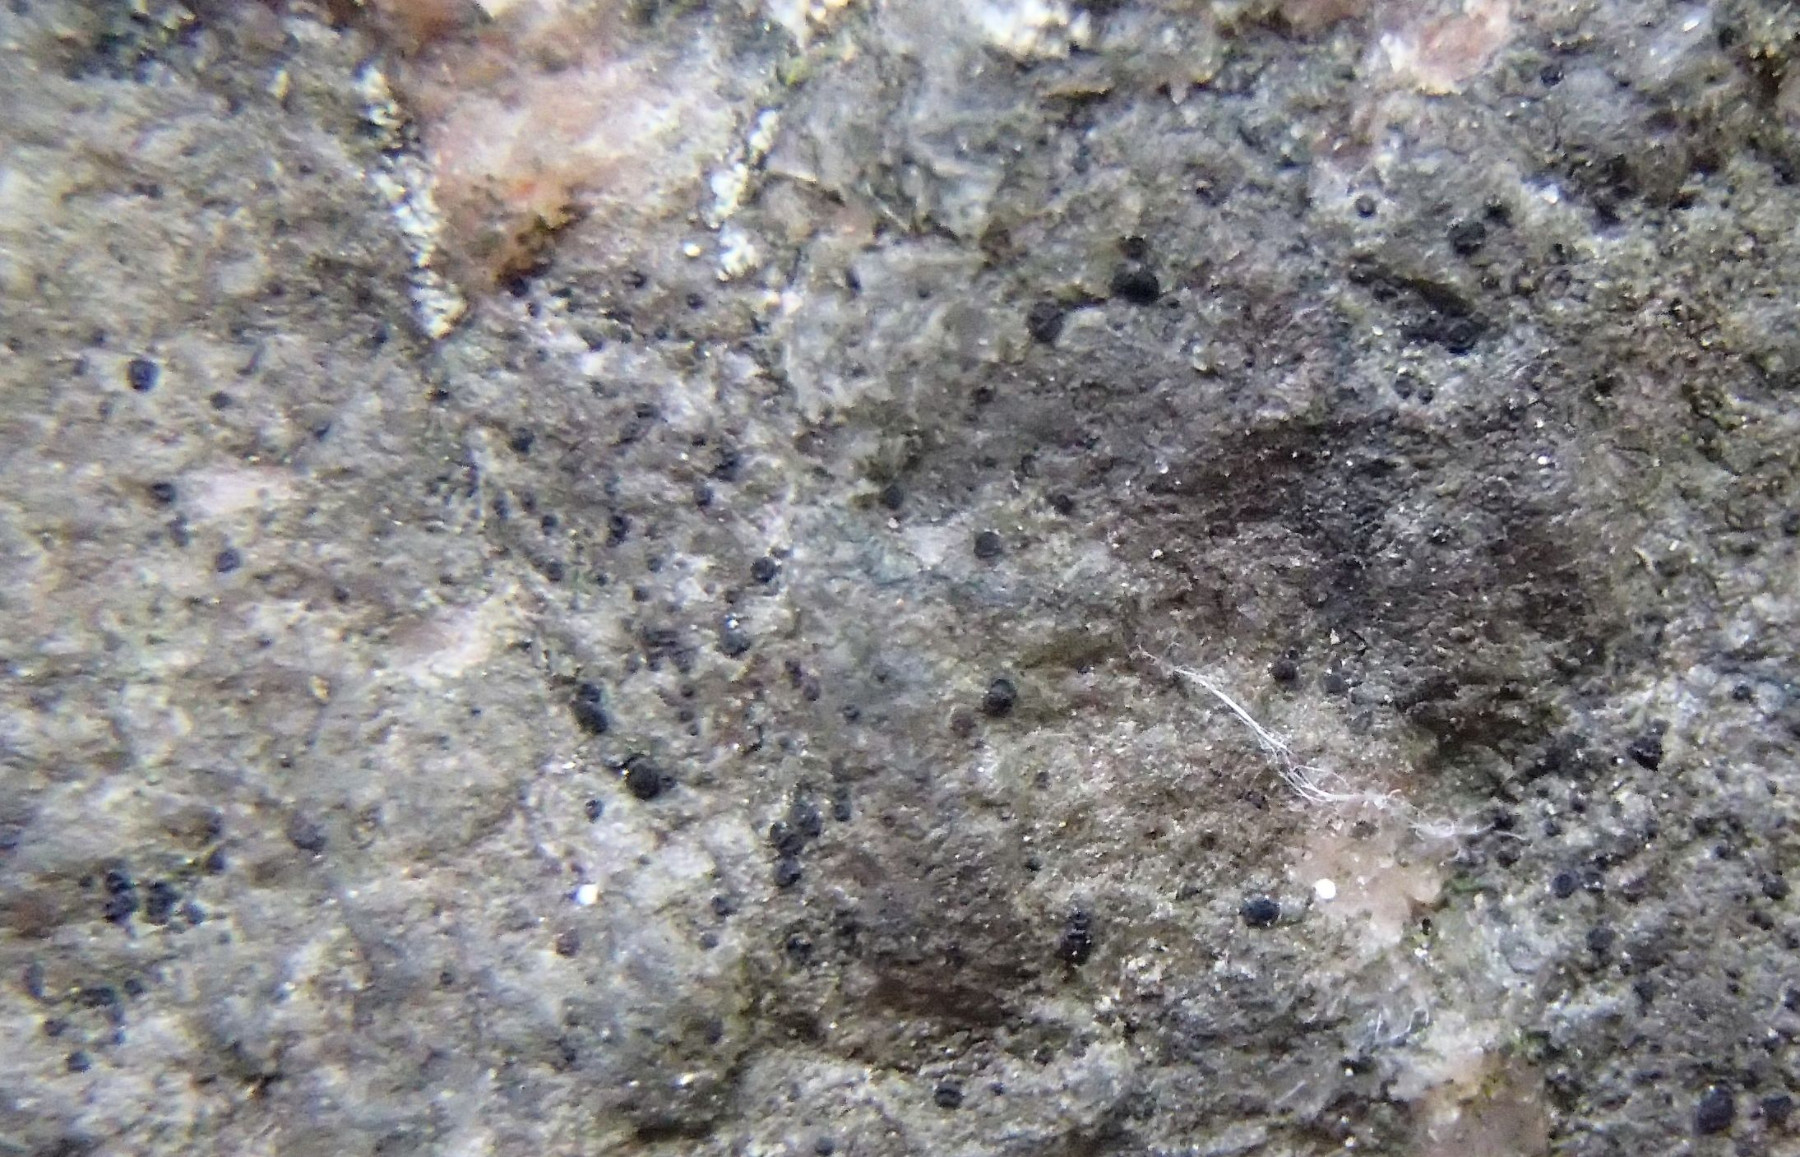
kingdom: Fungi
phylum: Ascomycota
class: Lecanoromycetes
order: Lecanorales
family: Catillariaceae
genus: Catillaria
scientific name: Catillaria chalybeia
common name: sten-tallerkenlav
